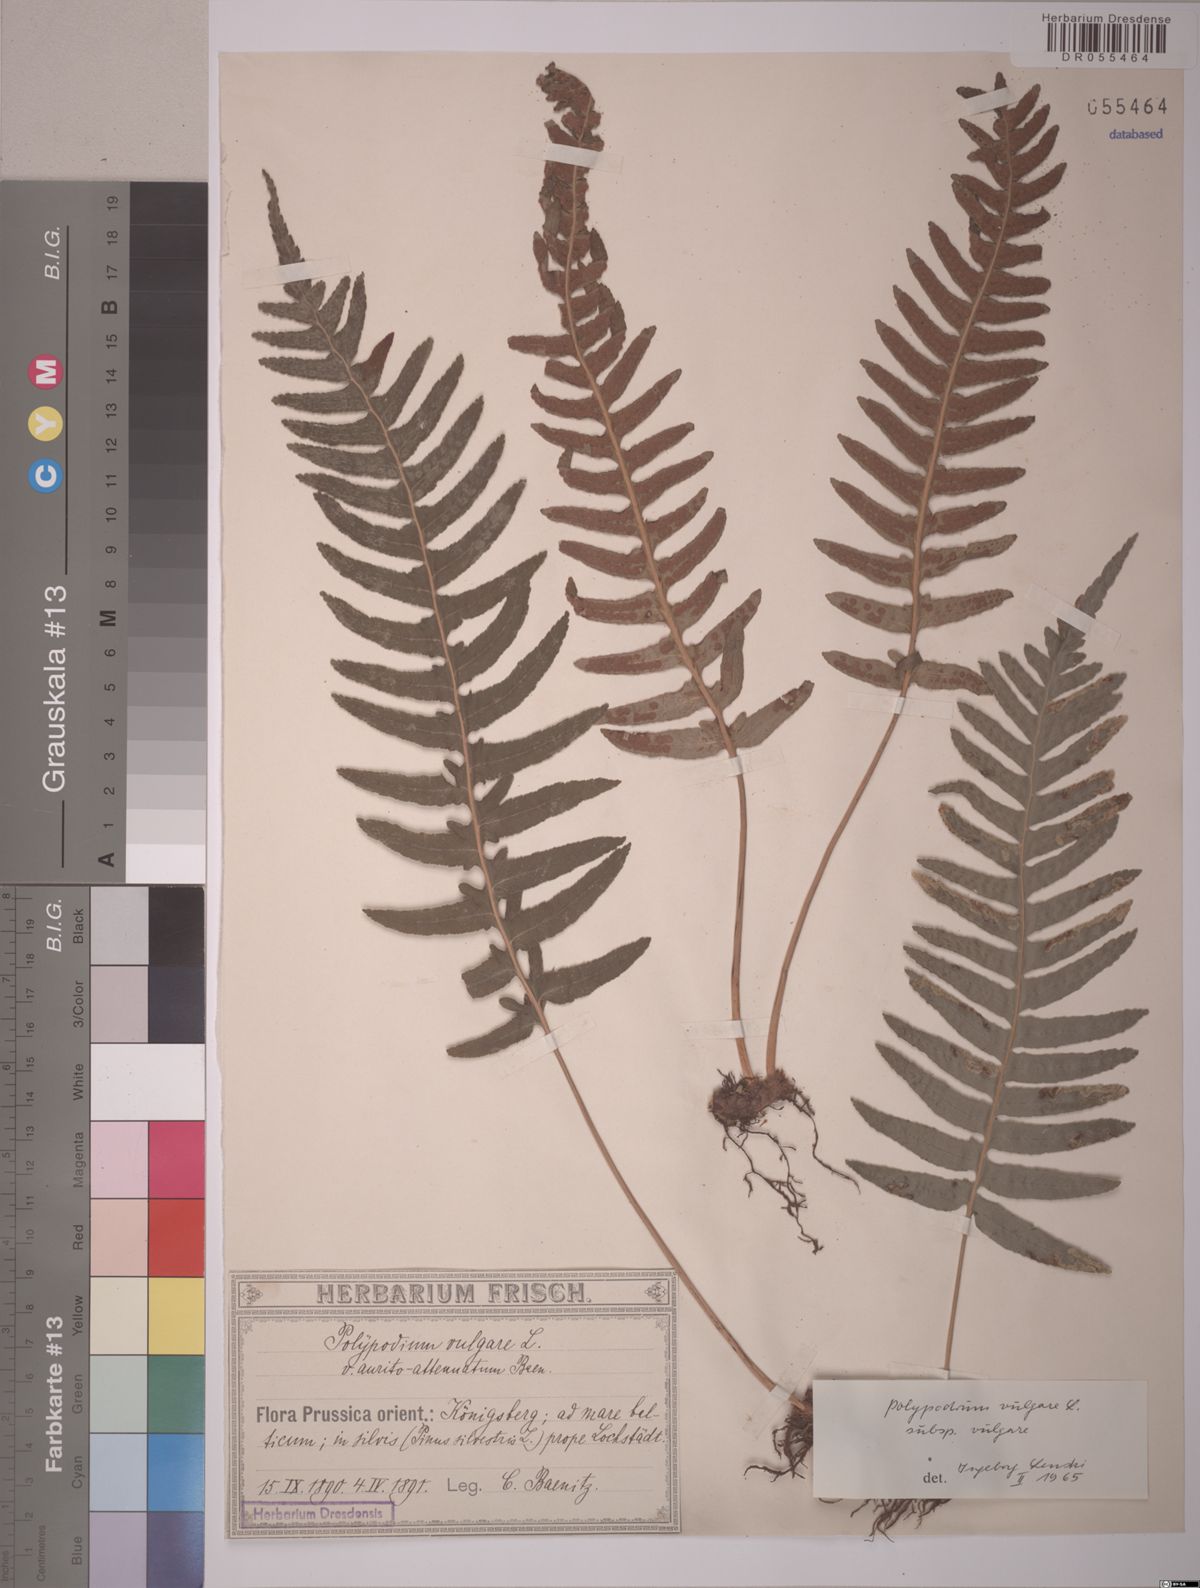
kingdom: Plantae
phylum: Tracheophyta
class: Polypodiopsida
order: Polypodiales
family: Polypodiaceae
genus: Polypodium
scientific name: Polypodium vulgare
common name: Common polypody
